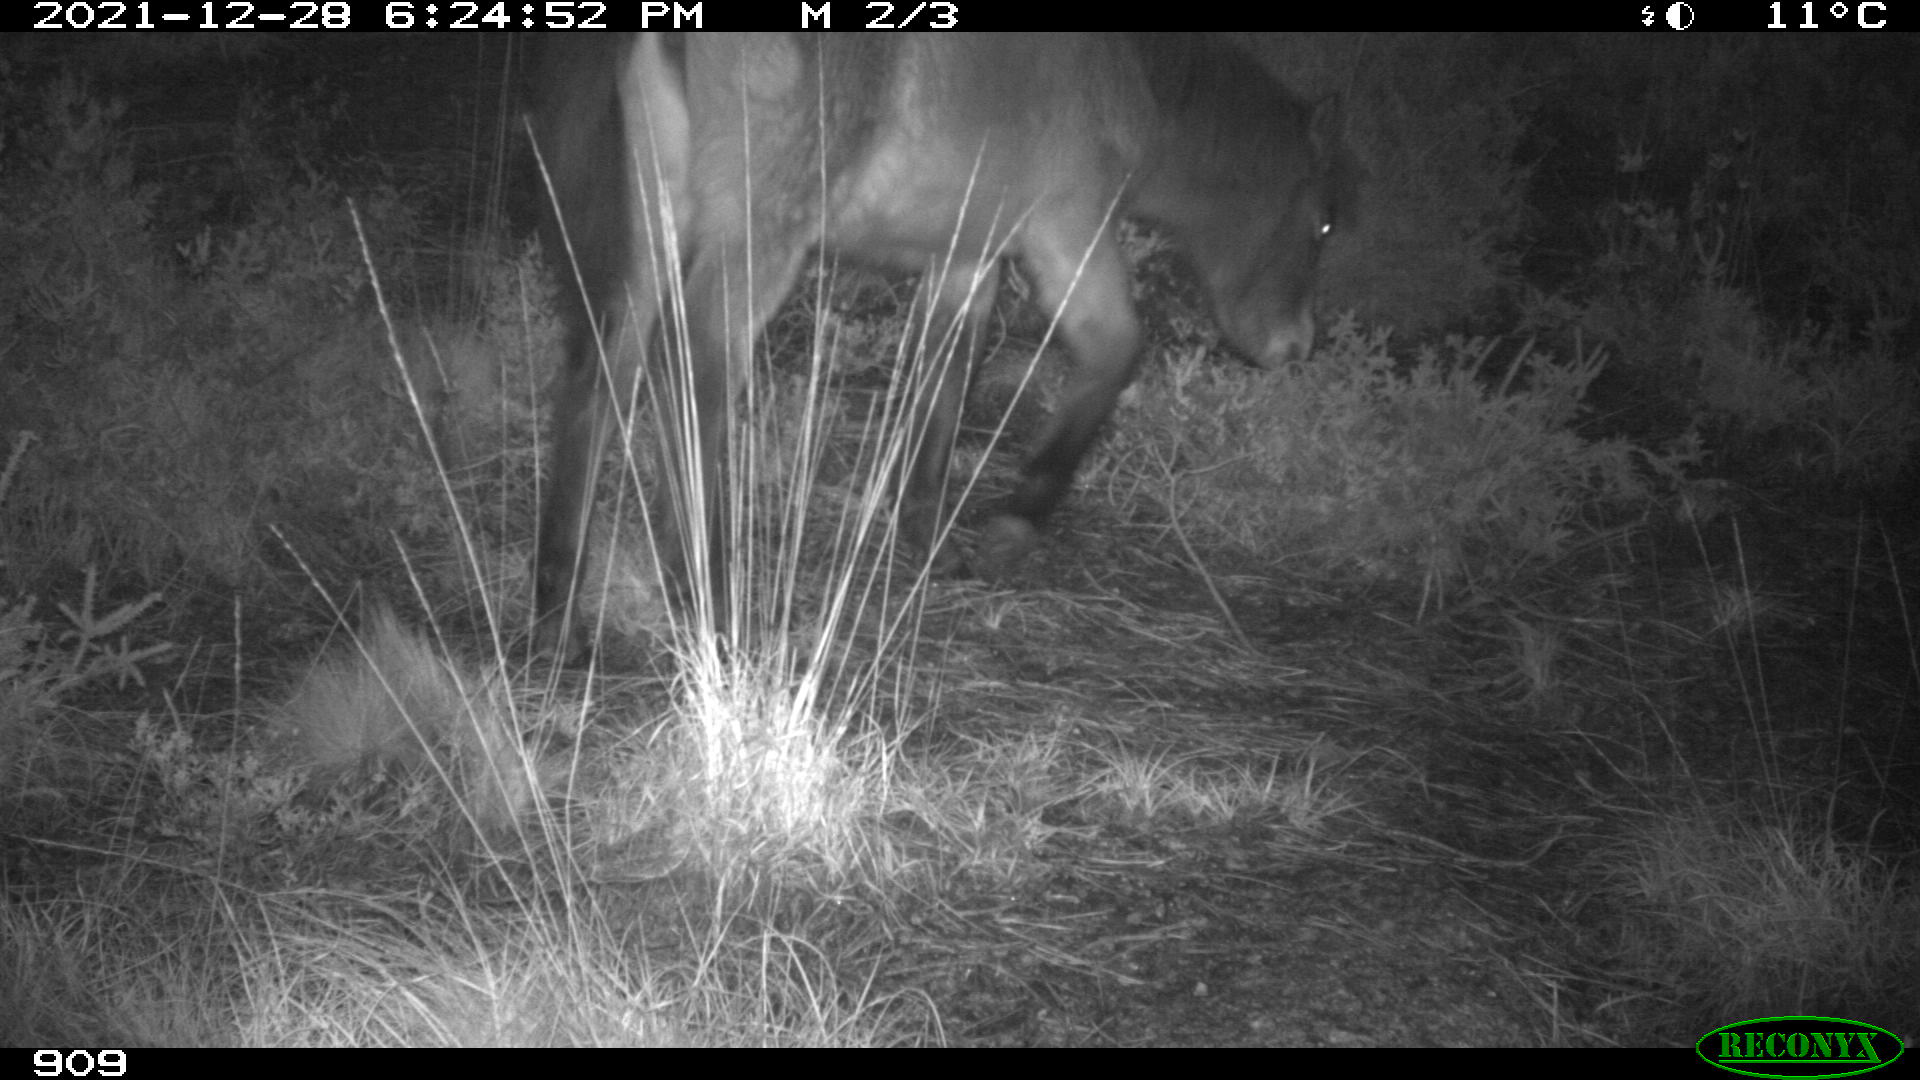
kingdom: Animalia
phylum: Chordata
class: Mammalia
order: Perissodactyla
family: Equidae
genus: Equus
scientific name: Equus caballus
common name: Horse
